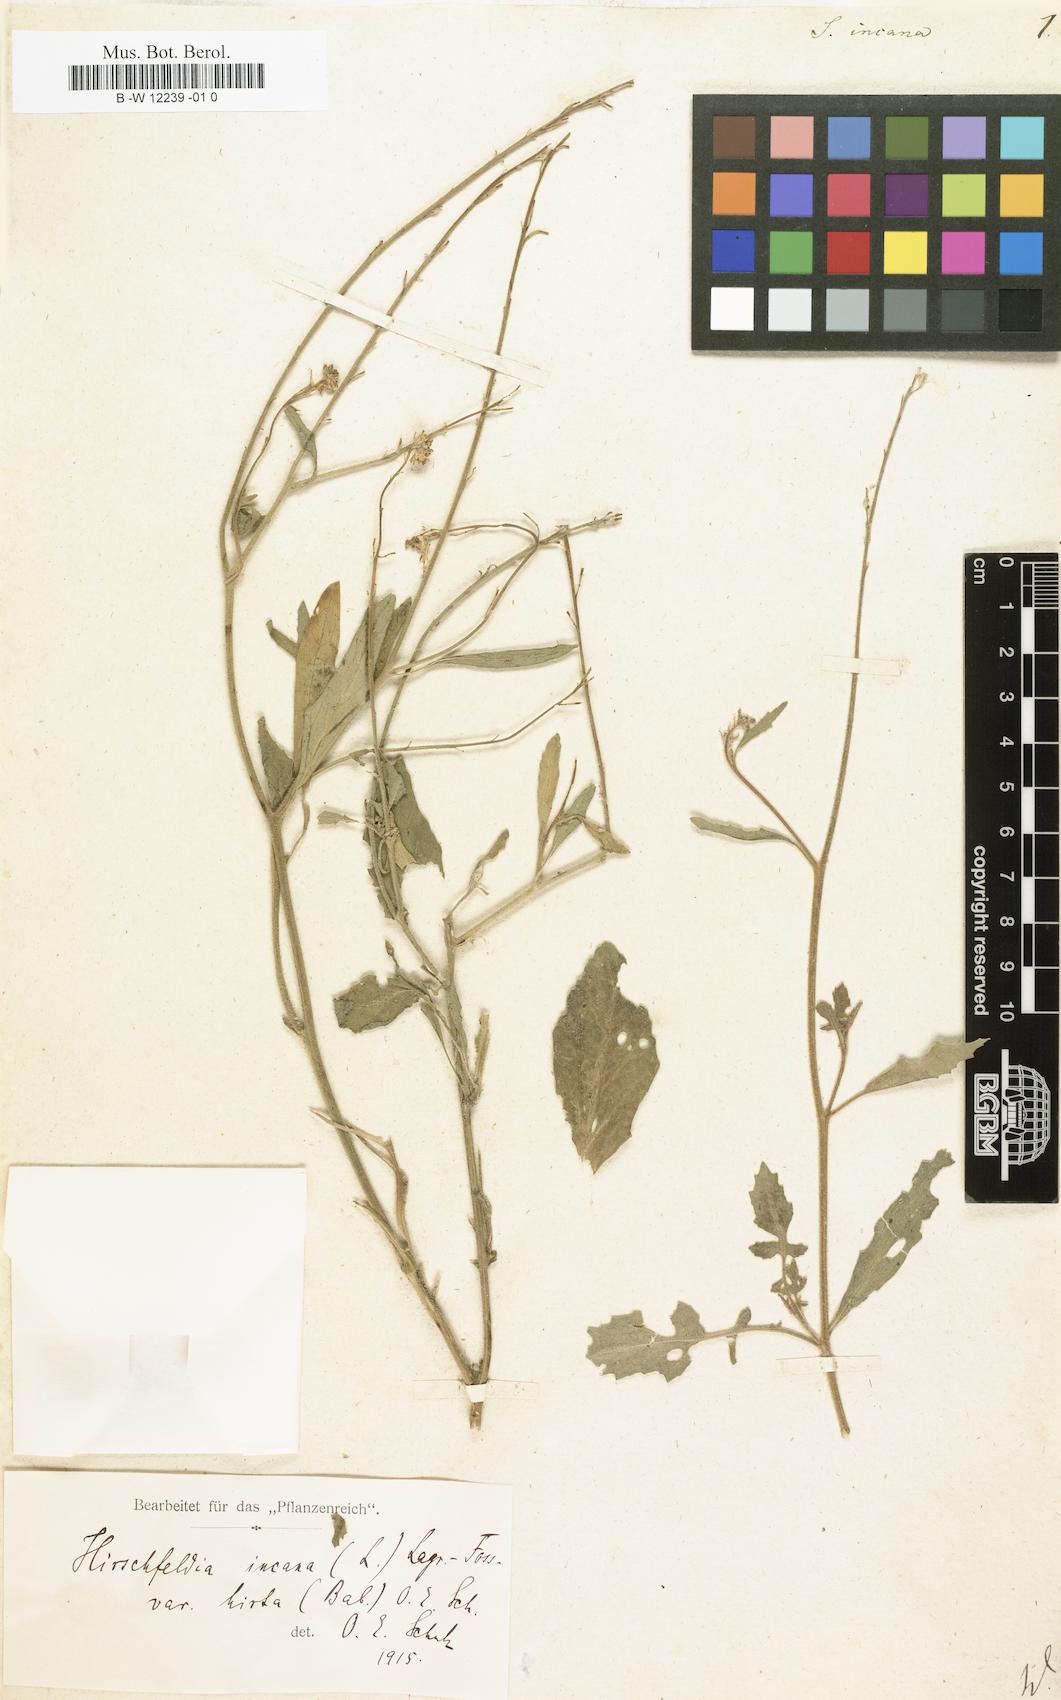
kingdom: Plantae
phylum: Tracheophyta
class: Magnoliopsida
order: Brassicales
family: Brassicaceae
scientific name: Brassicaceae
